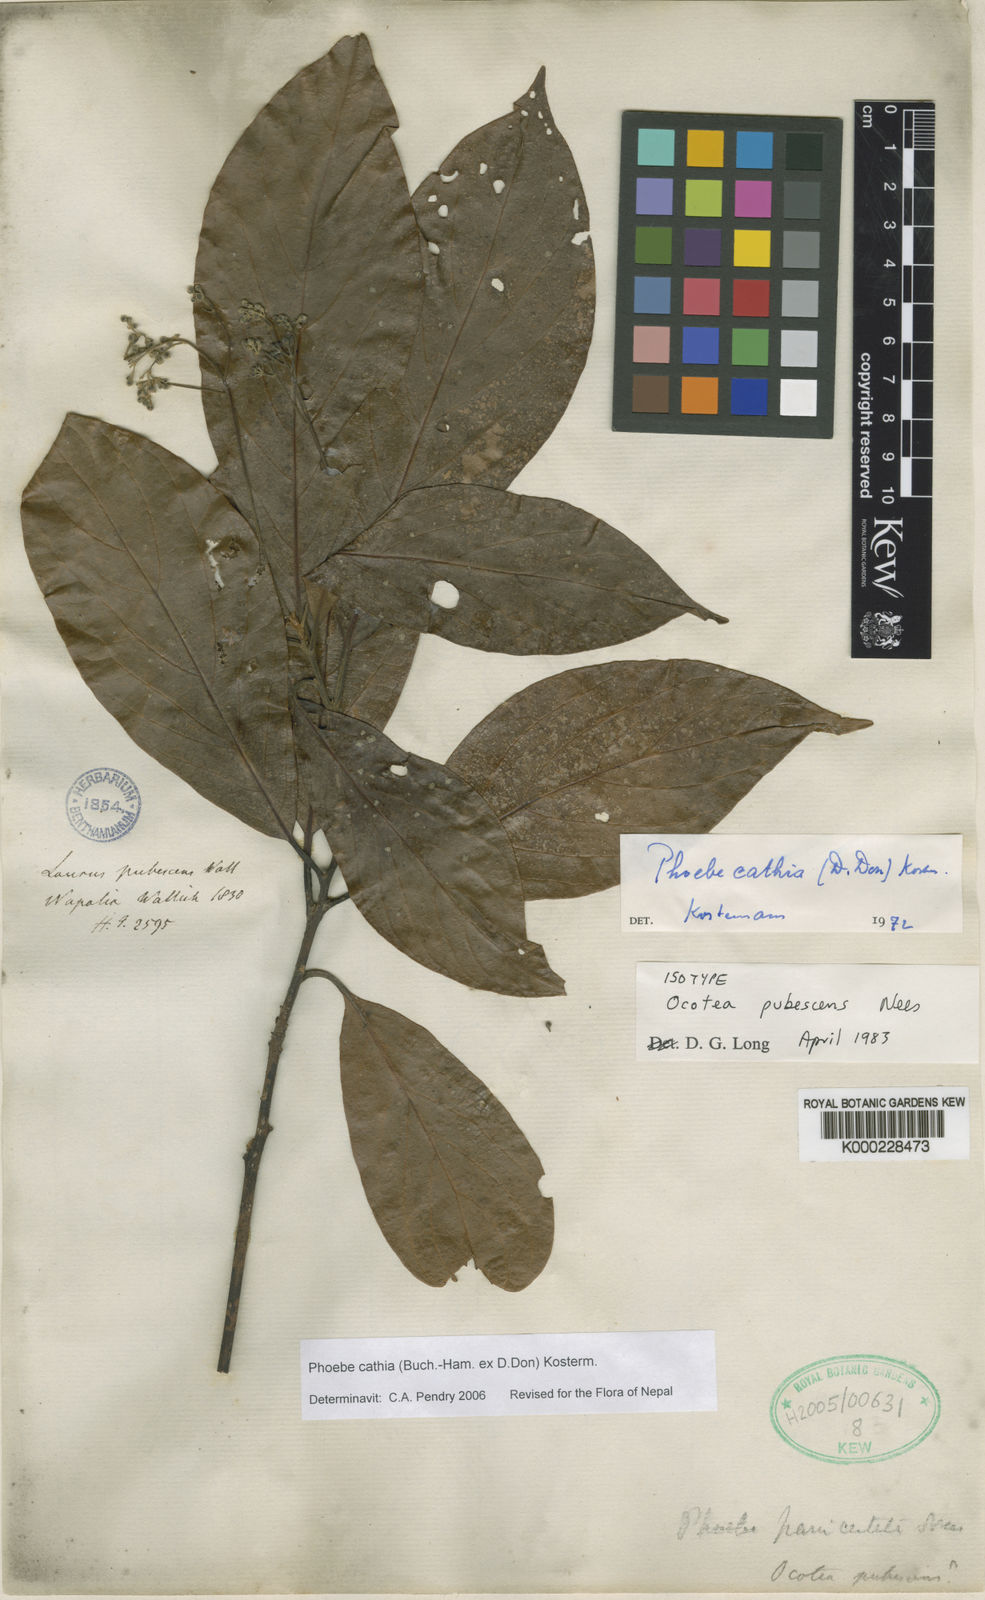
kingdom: Plantae
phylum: Tracheophyta
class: Magnoliopsida
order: Laurales
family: Lauraceae
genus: Phoebe
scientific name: Phoebe pallida
